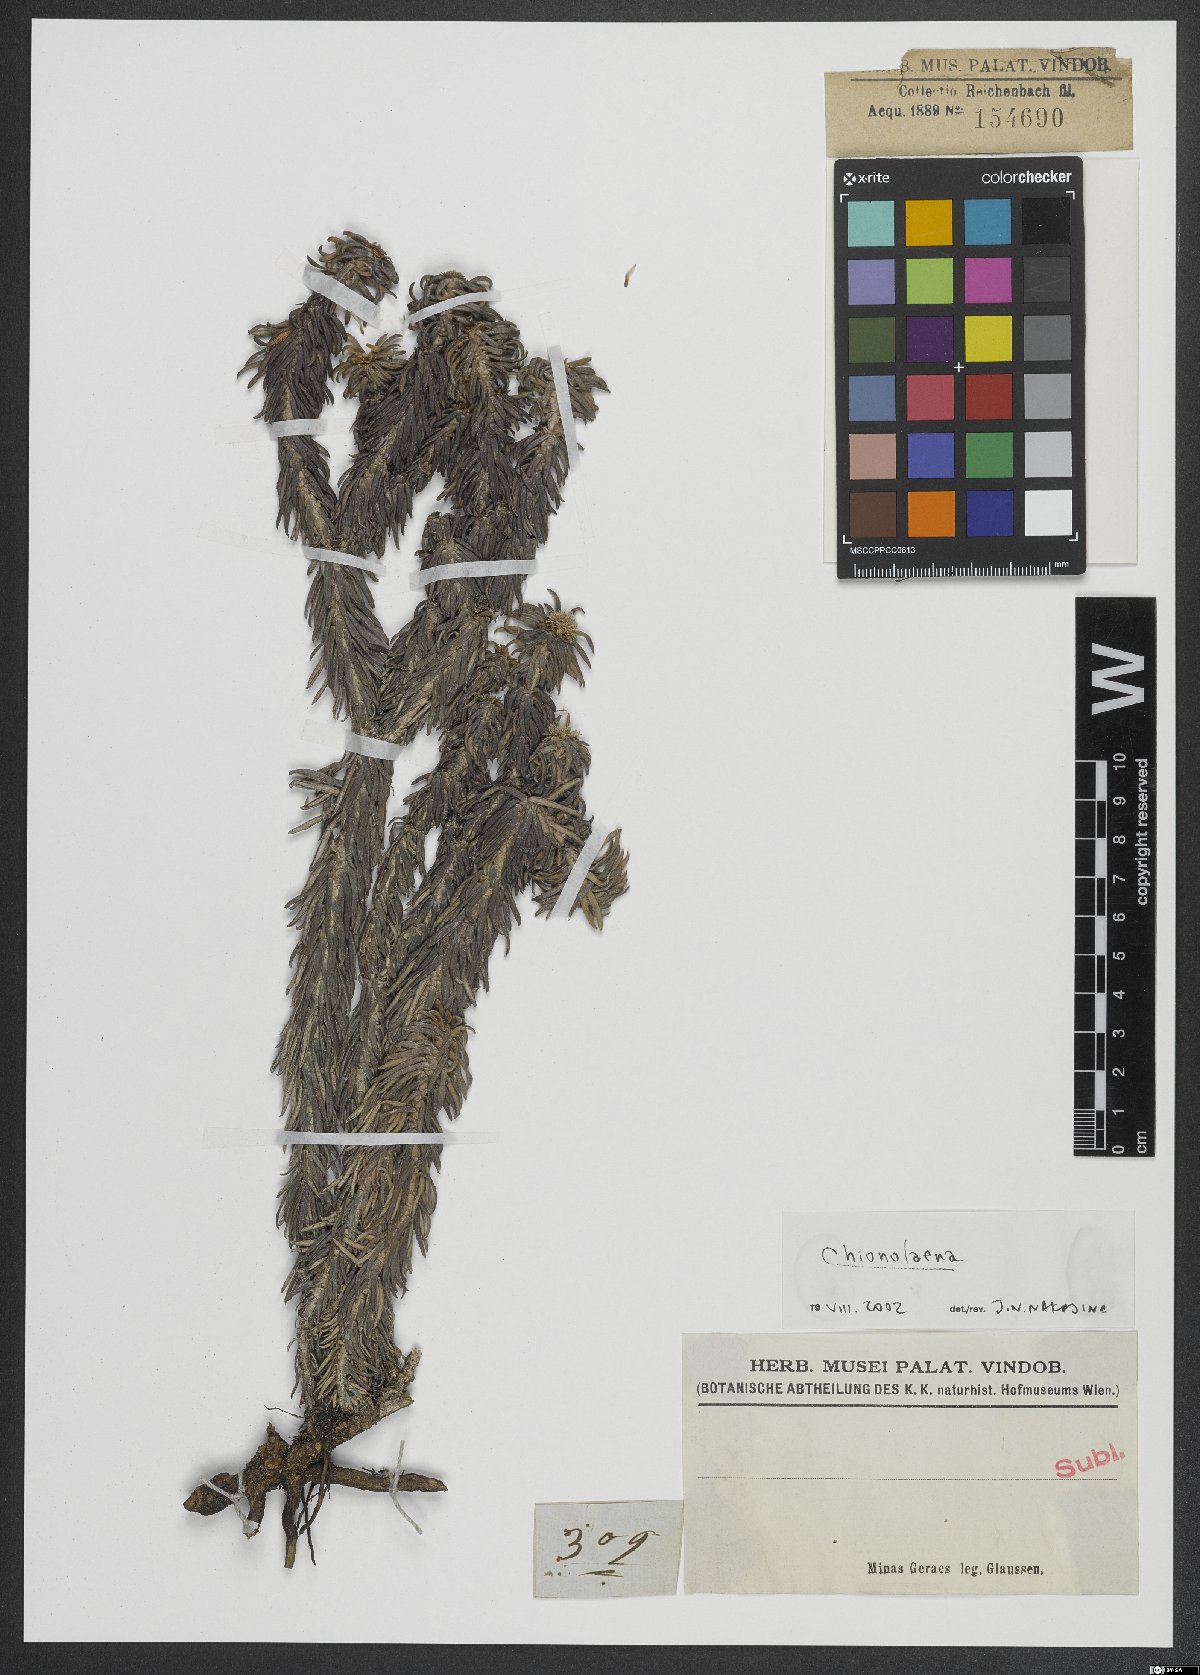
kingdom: Plantae
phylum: Tracheophyta
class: Magnoliopsida
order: Asterales
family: Asteraceae
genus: Chionolaena
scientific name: Chionolaena
